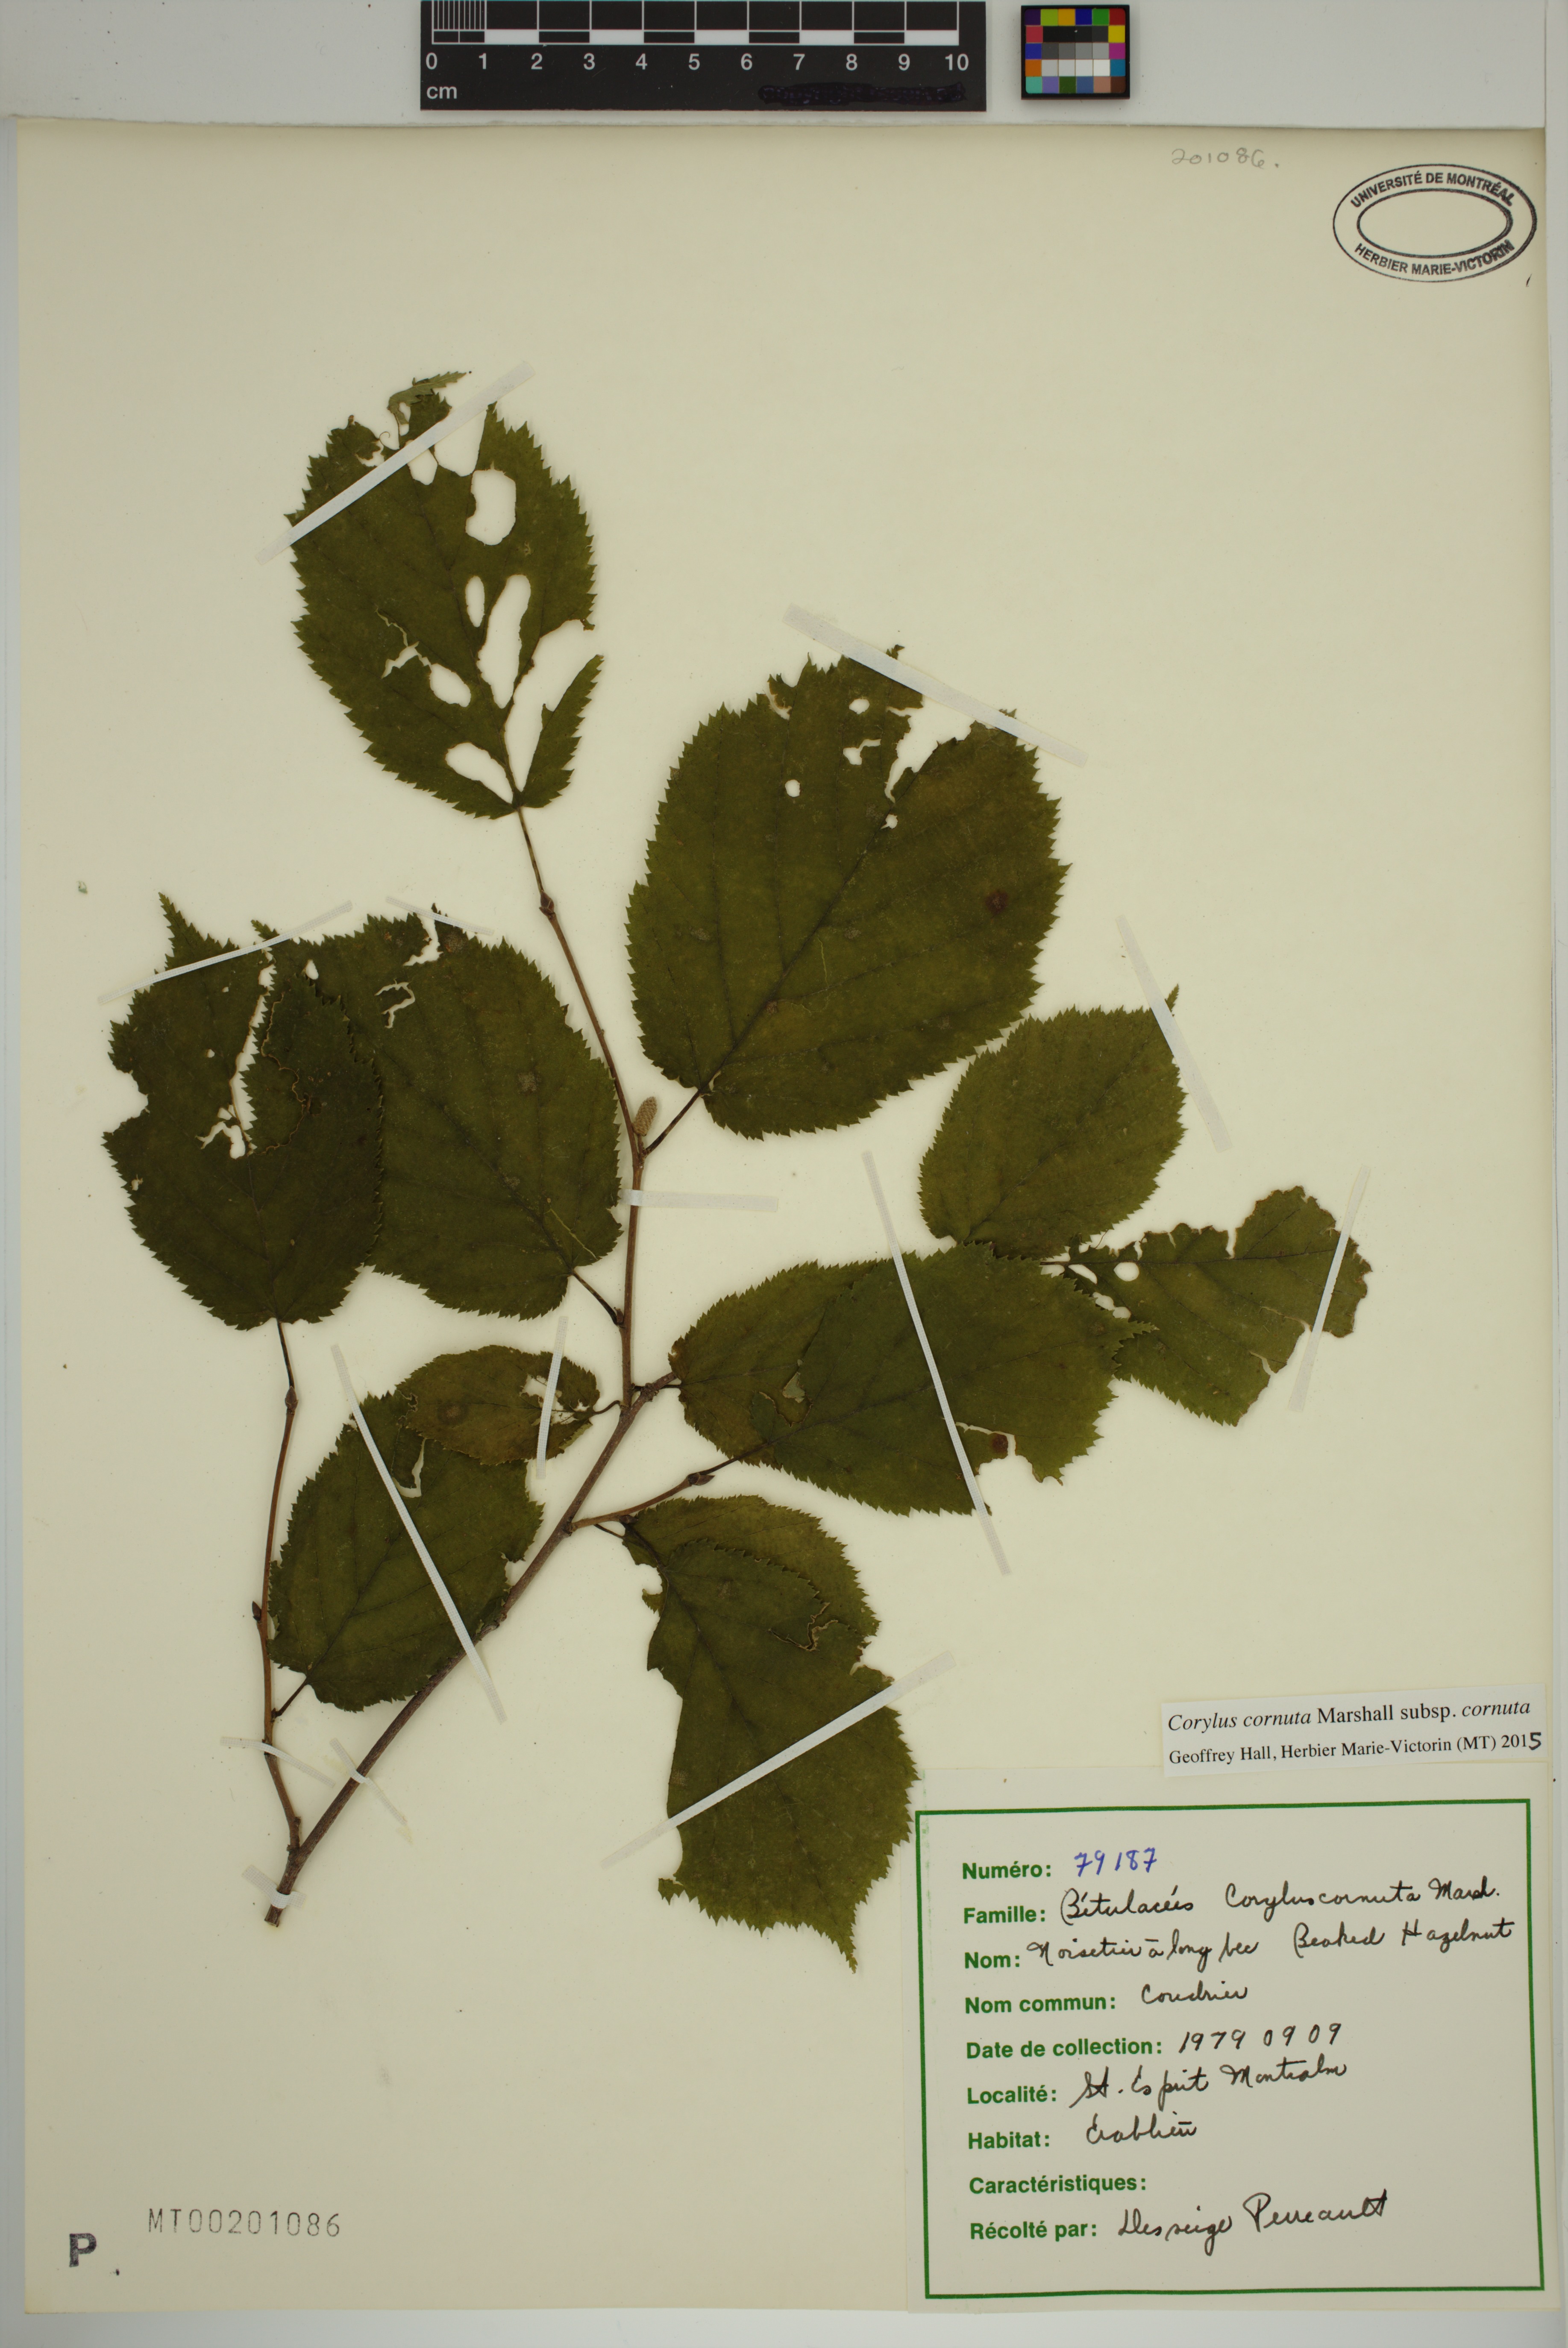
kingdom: Plantae
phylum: Tracheophyta
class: Magnoliopsida
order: Fagales
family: Betulaceae
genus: Corylus
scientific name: Corylus cornuta
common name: Beaked hazel
